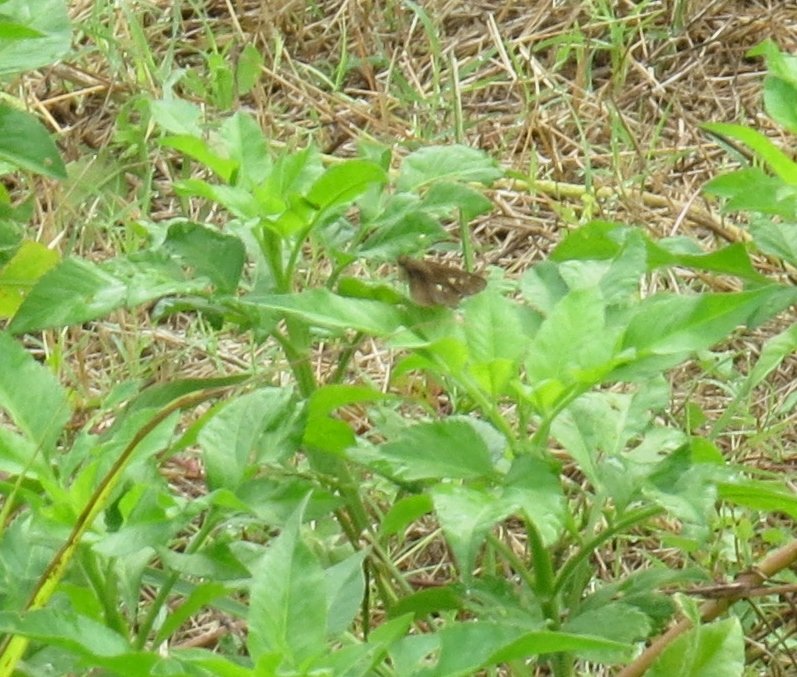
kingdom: Animalia
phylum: Arthropoda
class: Insecta
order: Lepidoptera
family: Hesperiidae
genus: Panoquina
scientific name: Panoquina ocola
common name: Ocola Skipper
